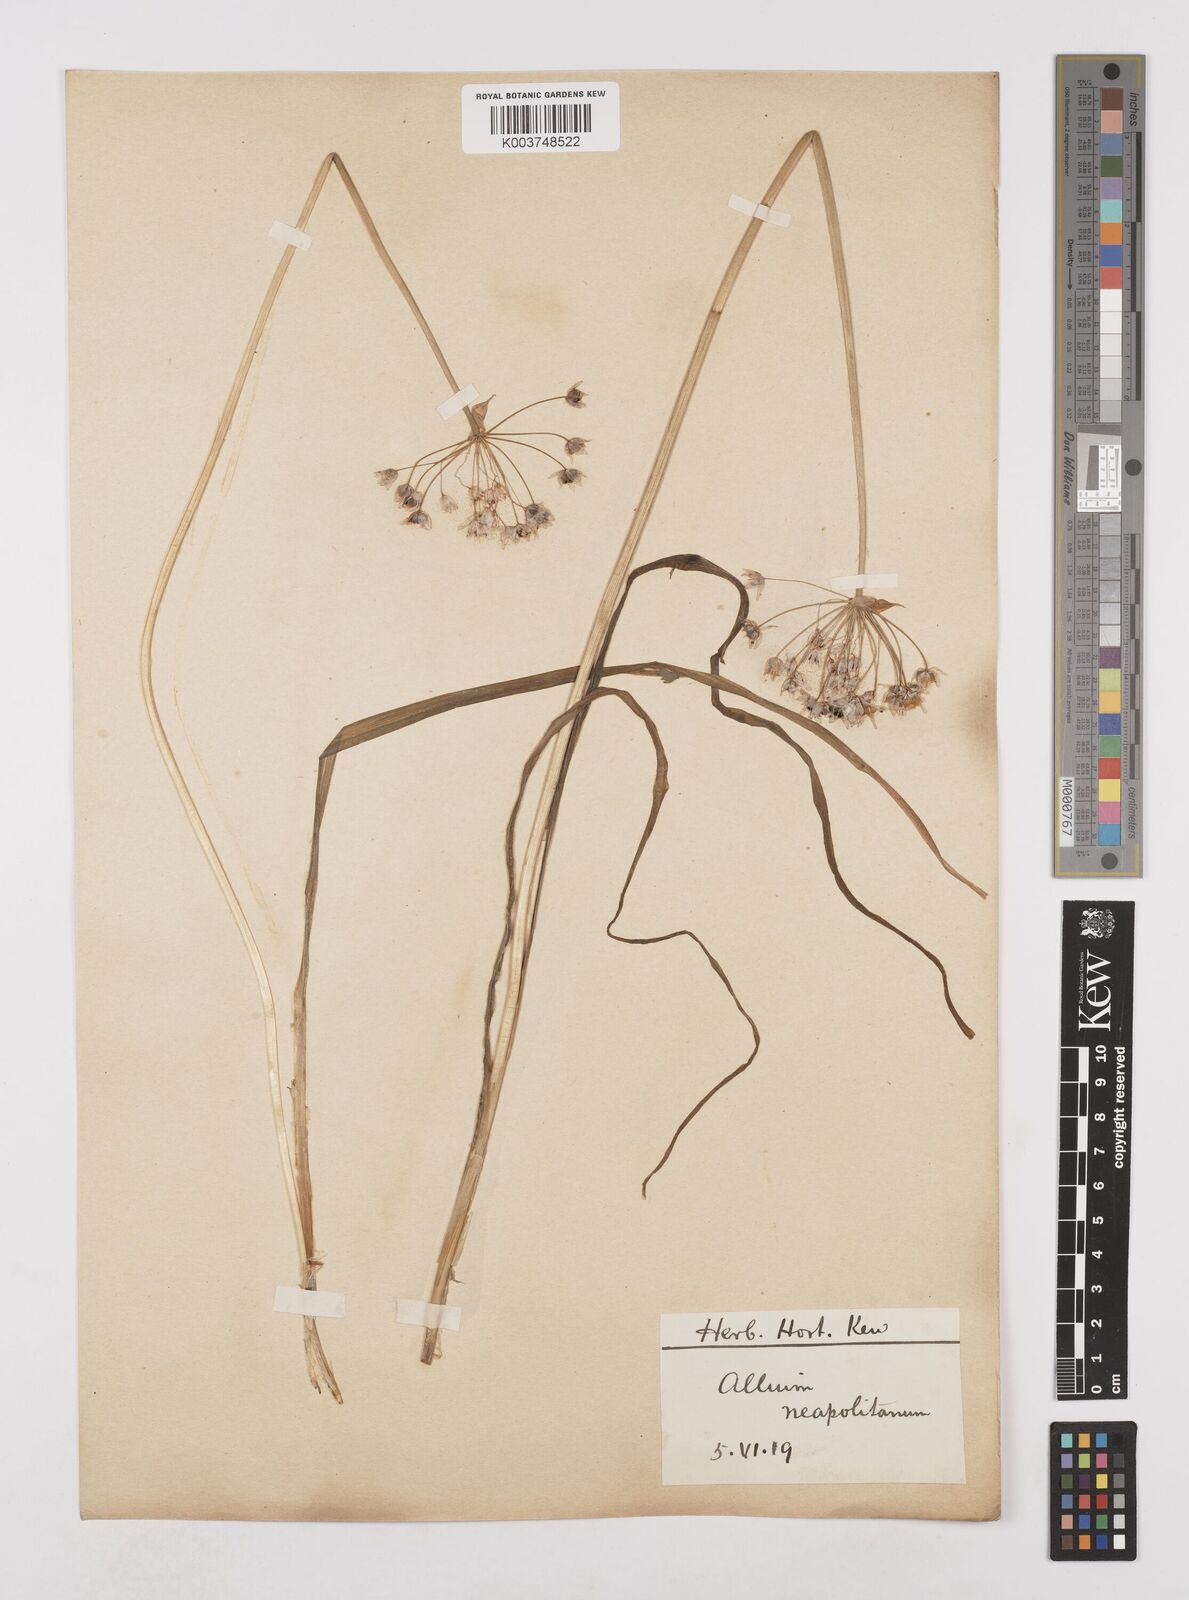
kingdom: Plantae
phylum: Tracheophyta
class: Liliopsida
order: Asparagales
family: Amaryllidaceae
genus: Allium
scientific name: Allium neapolitanum
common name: Neapolitan garlic
